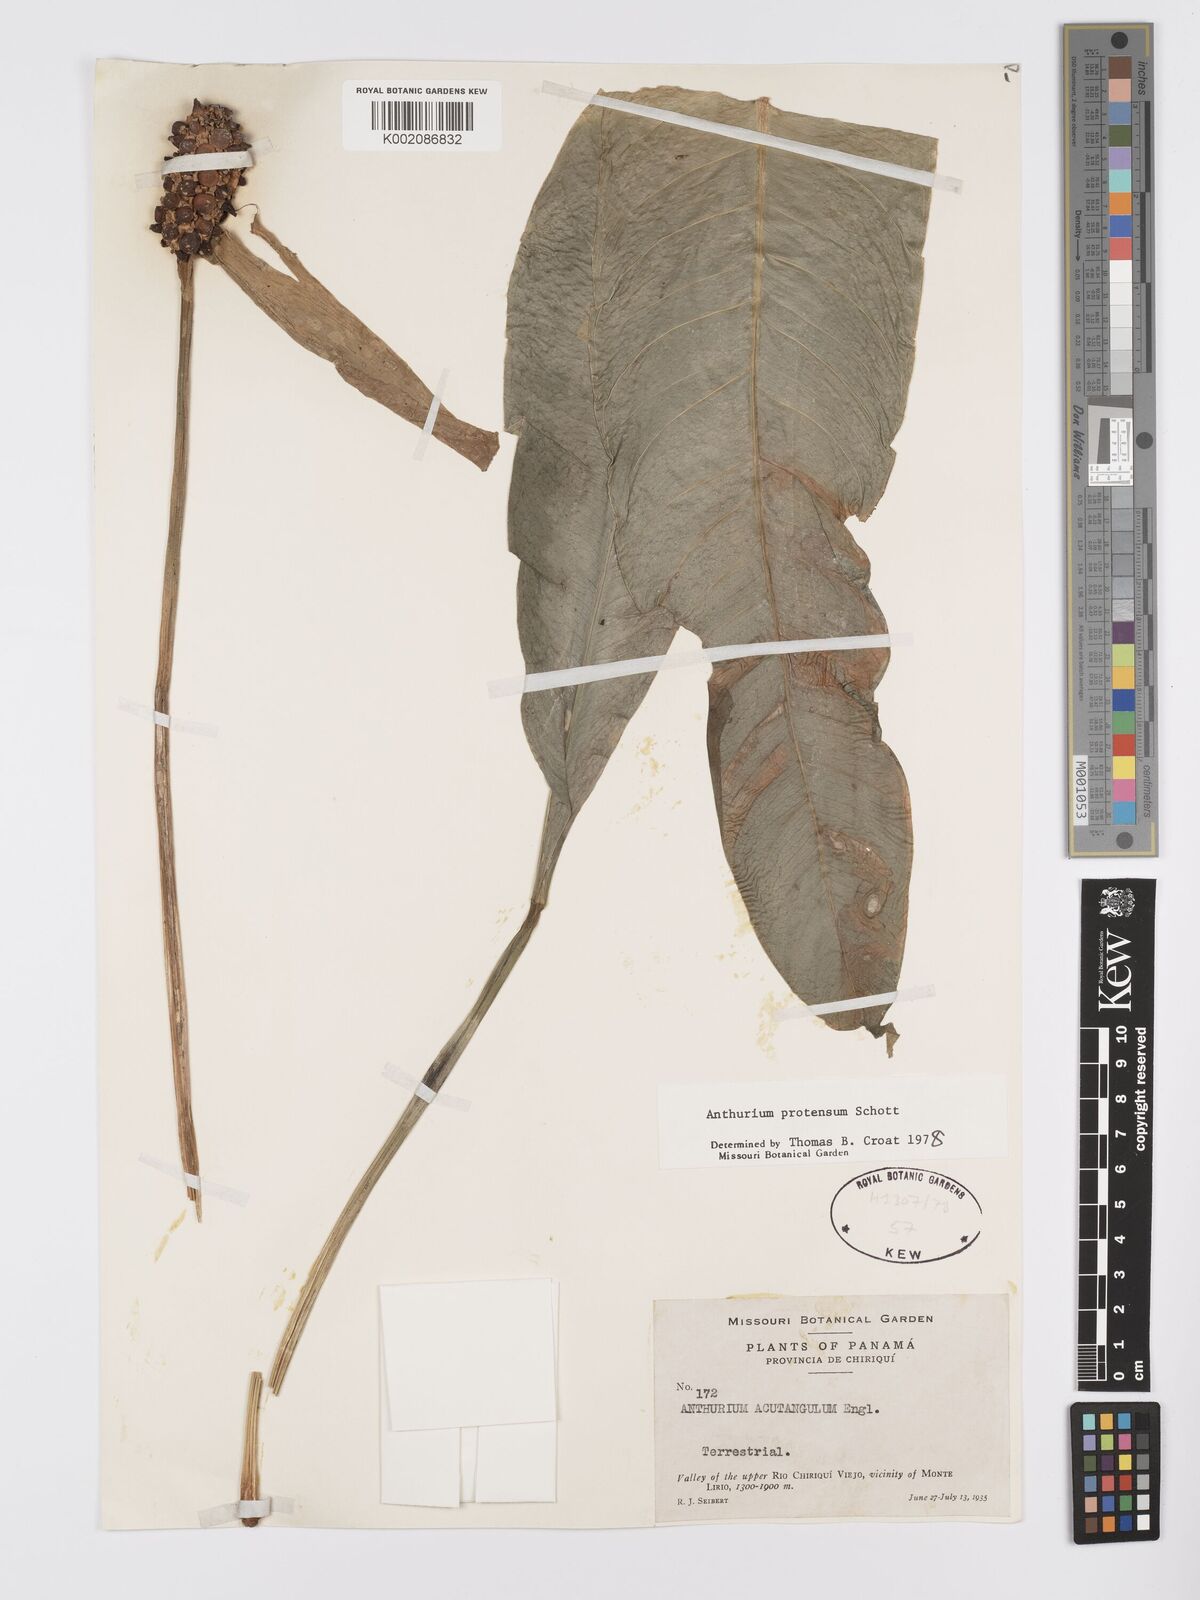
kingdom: Plantae
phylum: Tracheophyta
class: Liliopsida
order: Alismatales
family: Araceae
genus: Anthurium
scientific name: Anthurium protensum
